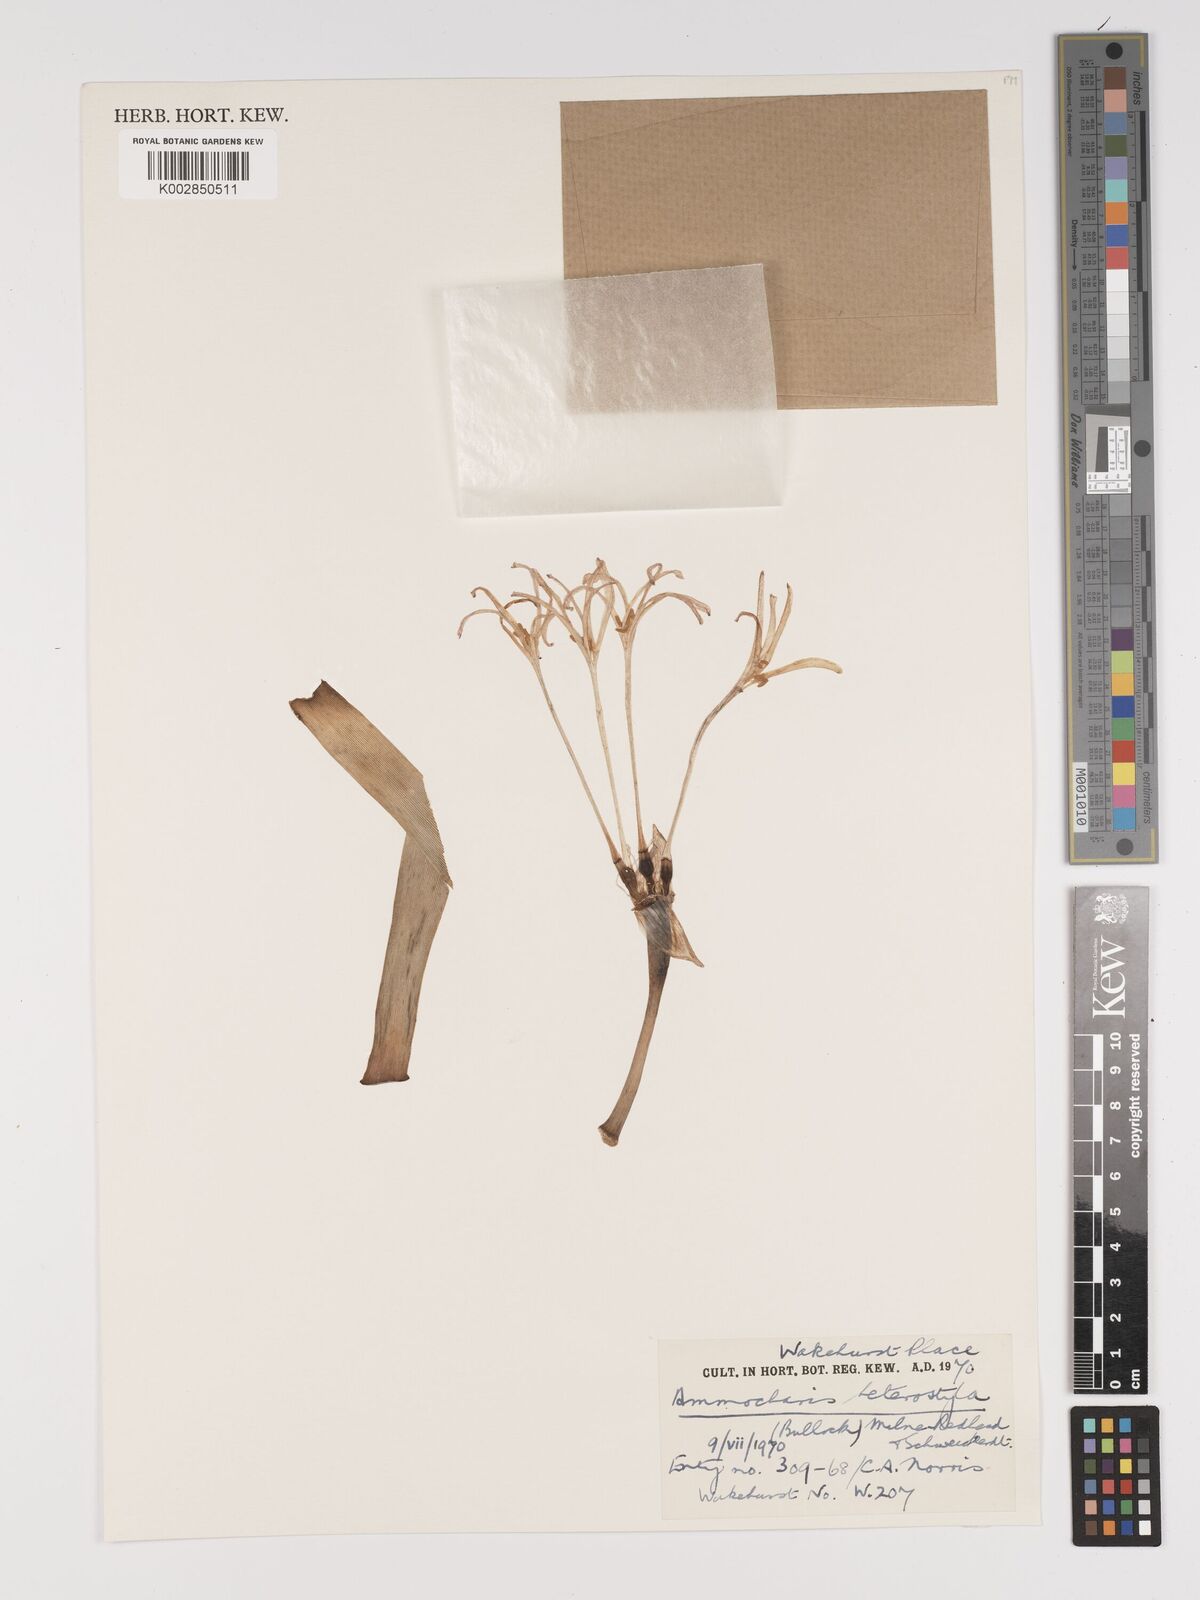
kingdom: Plantae
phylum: Tracheophyta
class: Liliopsida
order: Asparagales
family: Amaryllidaceae
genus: Ammocharis
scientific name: Ammocharis angolensis
